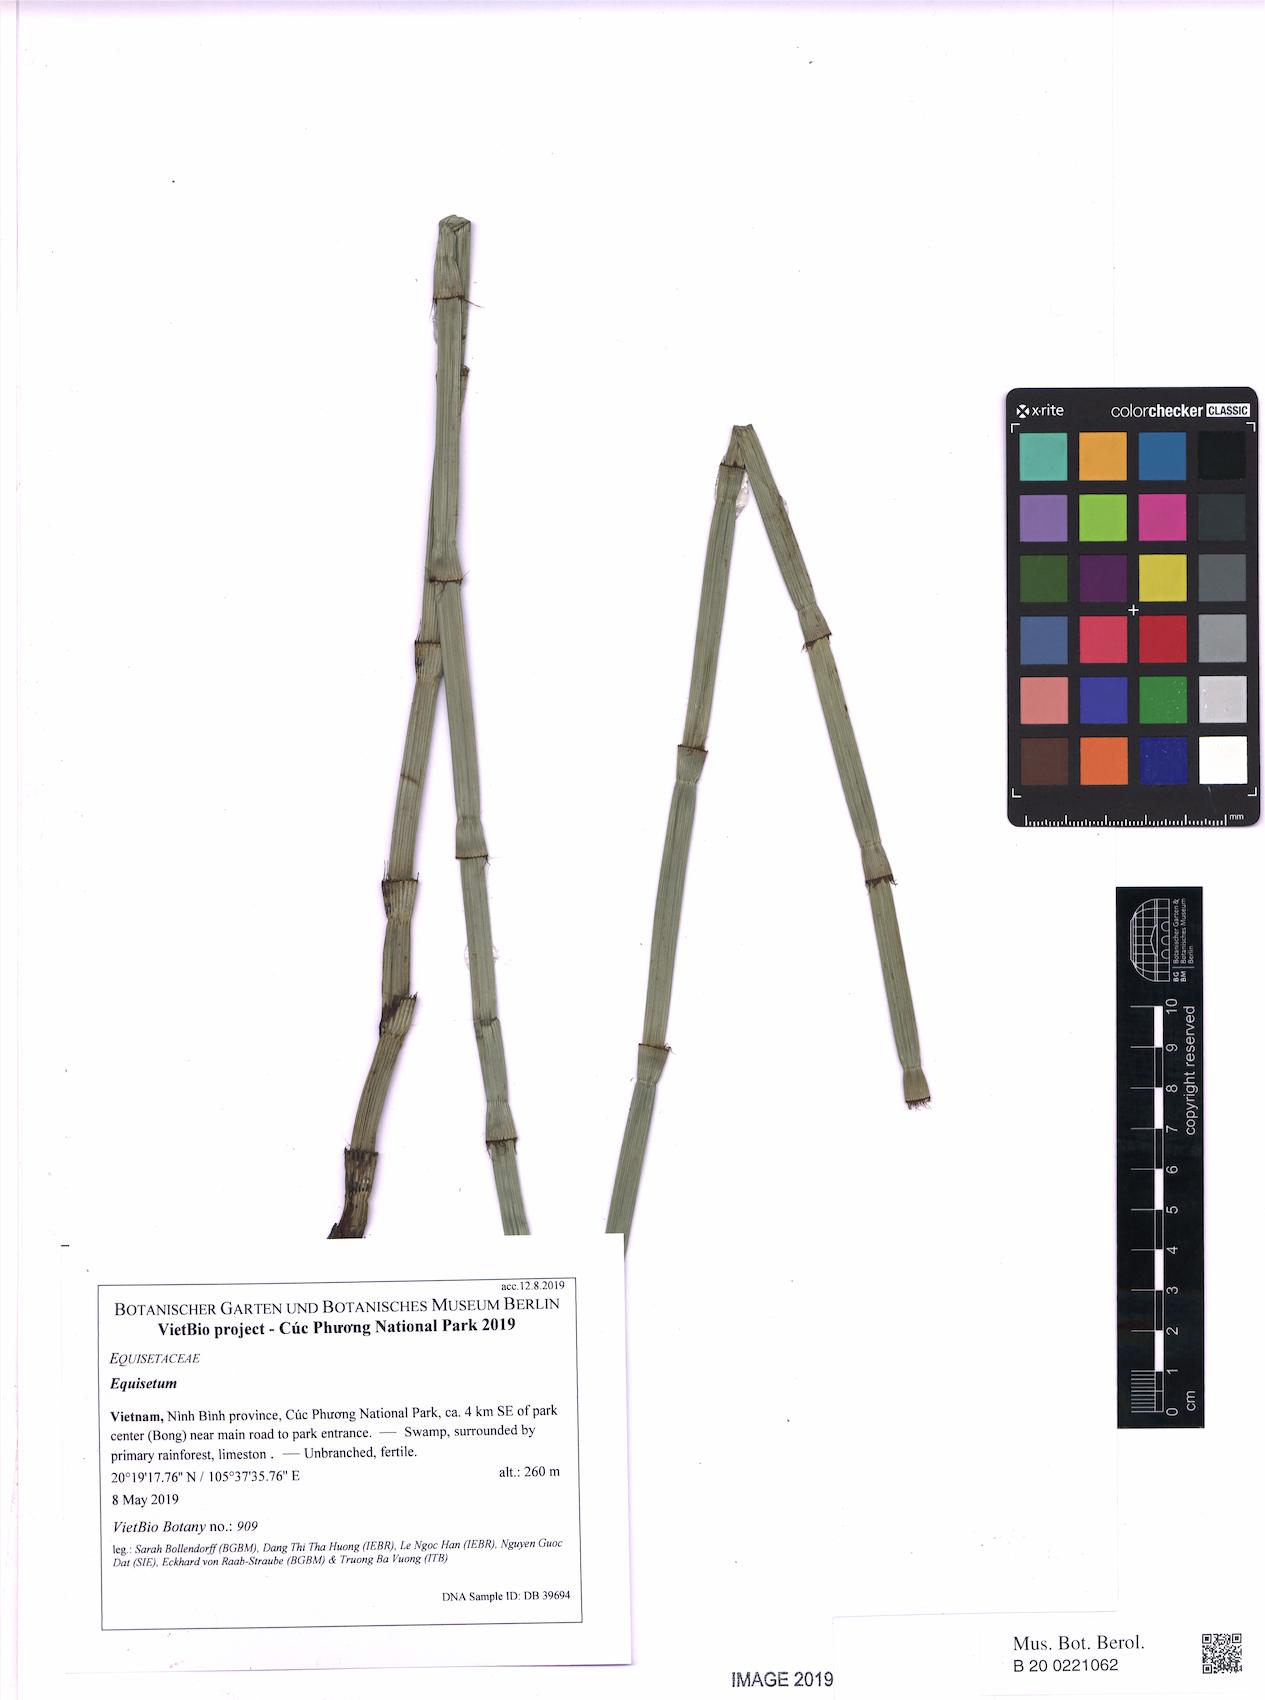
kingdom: Plantae
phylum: Tracheophyta
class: Polypodiopsida
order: Equisetales
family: Equisetaceae
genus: Equisetum
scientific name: Equisetum ramosissimum
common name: Branched horsetail
